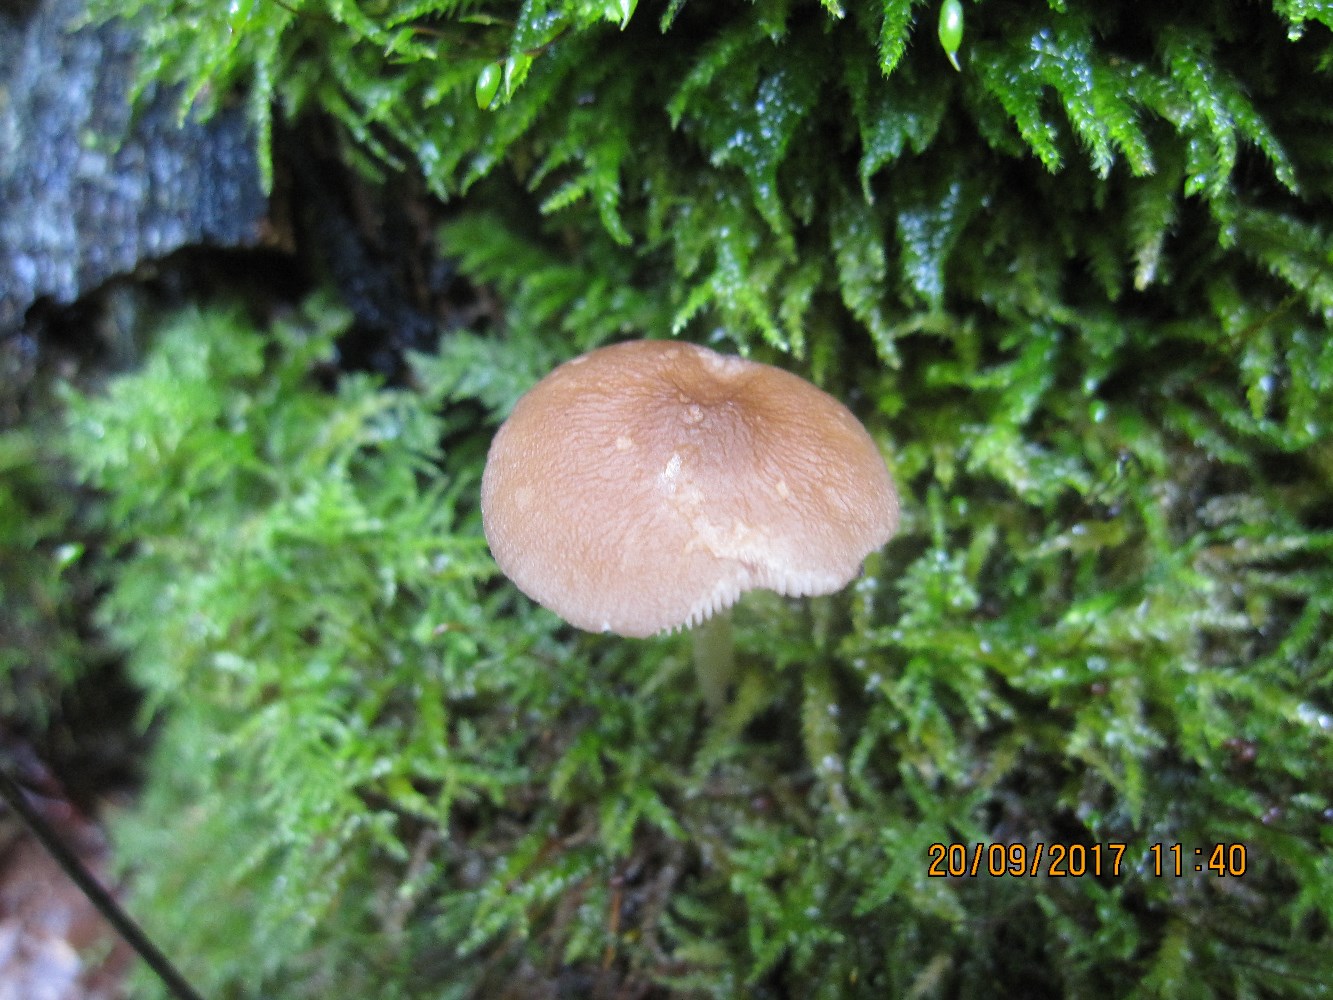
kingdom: Fungi
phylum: Basidiomycota
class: Agaricomycetes
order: Agaricales
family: Pluteaceae
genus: Pluteus
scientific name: Pluteus phlebophorus
